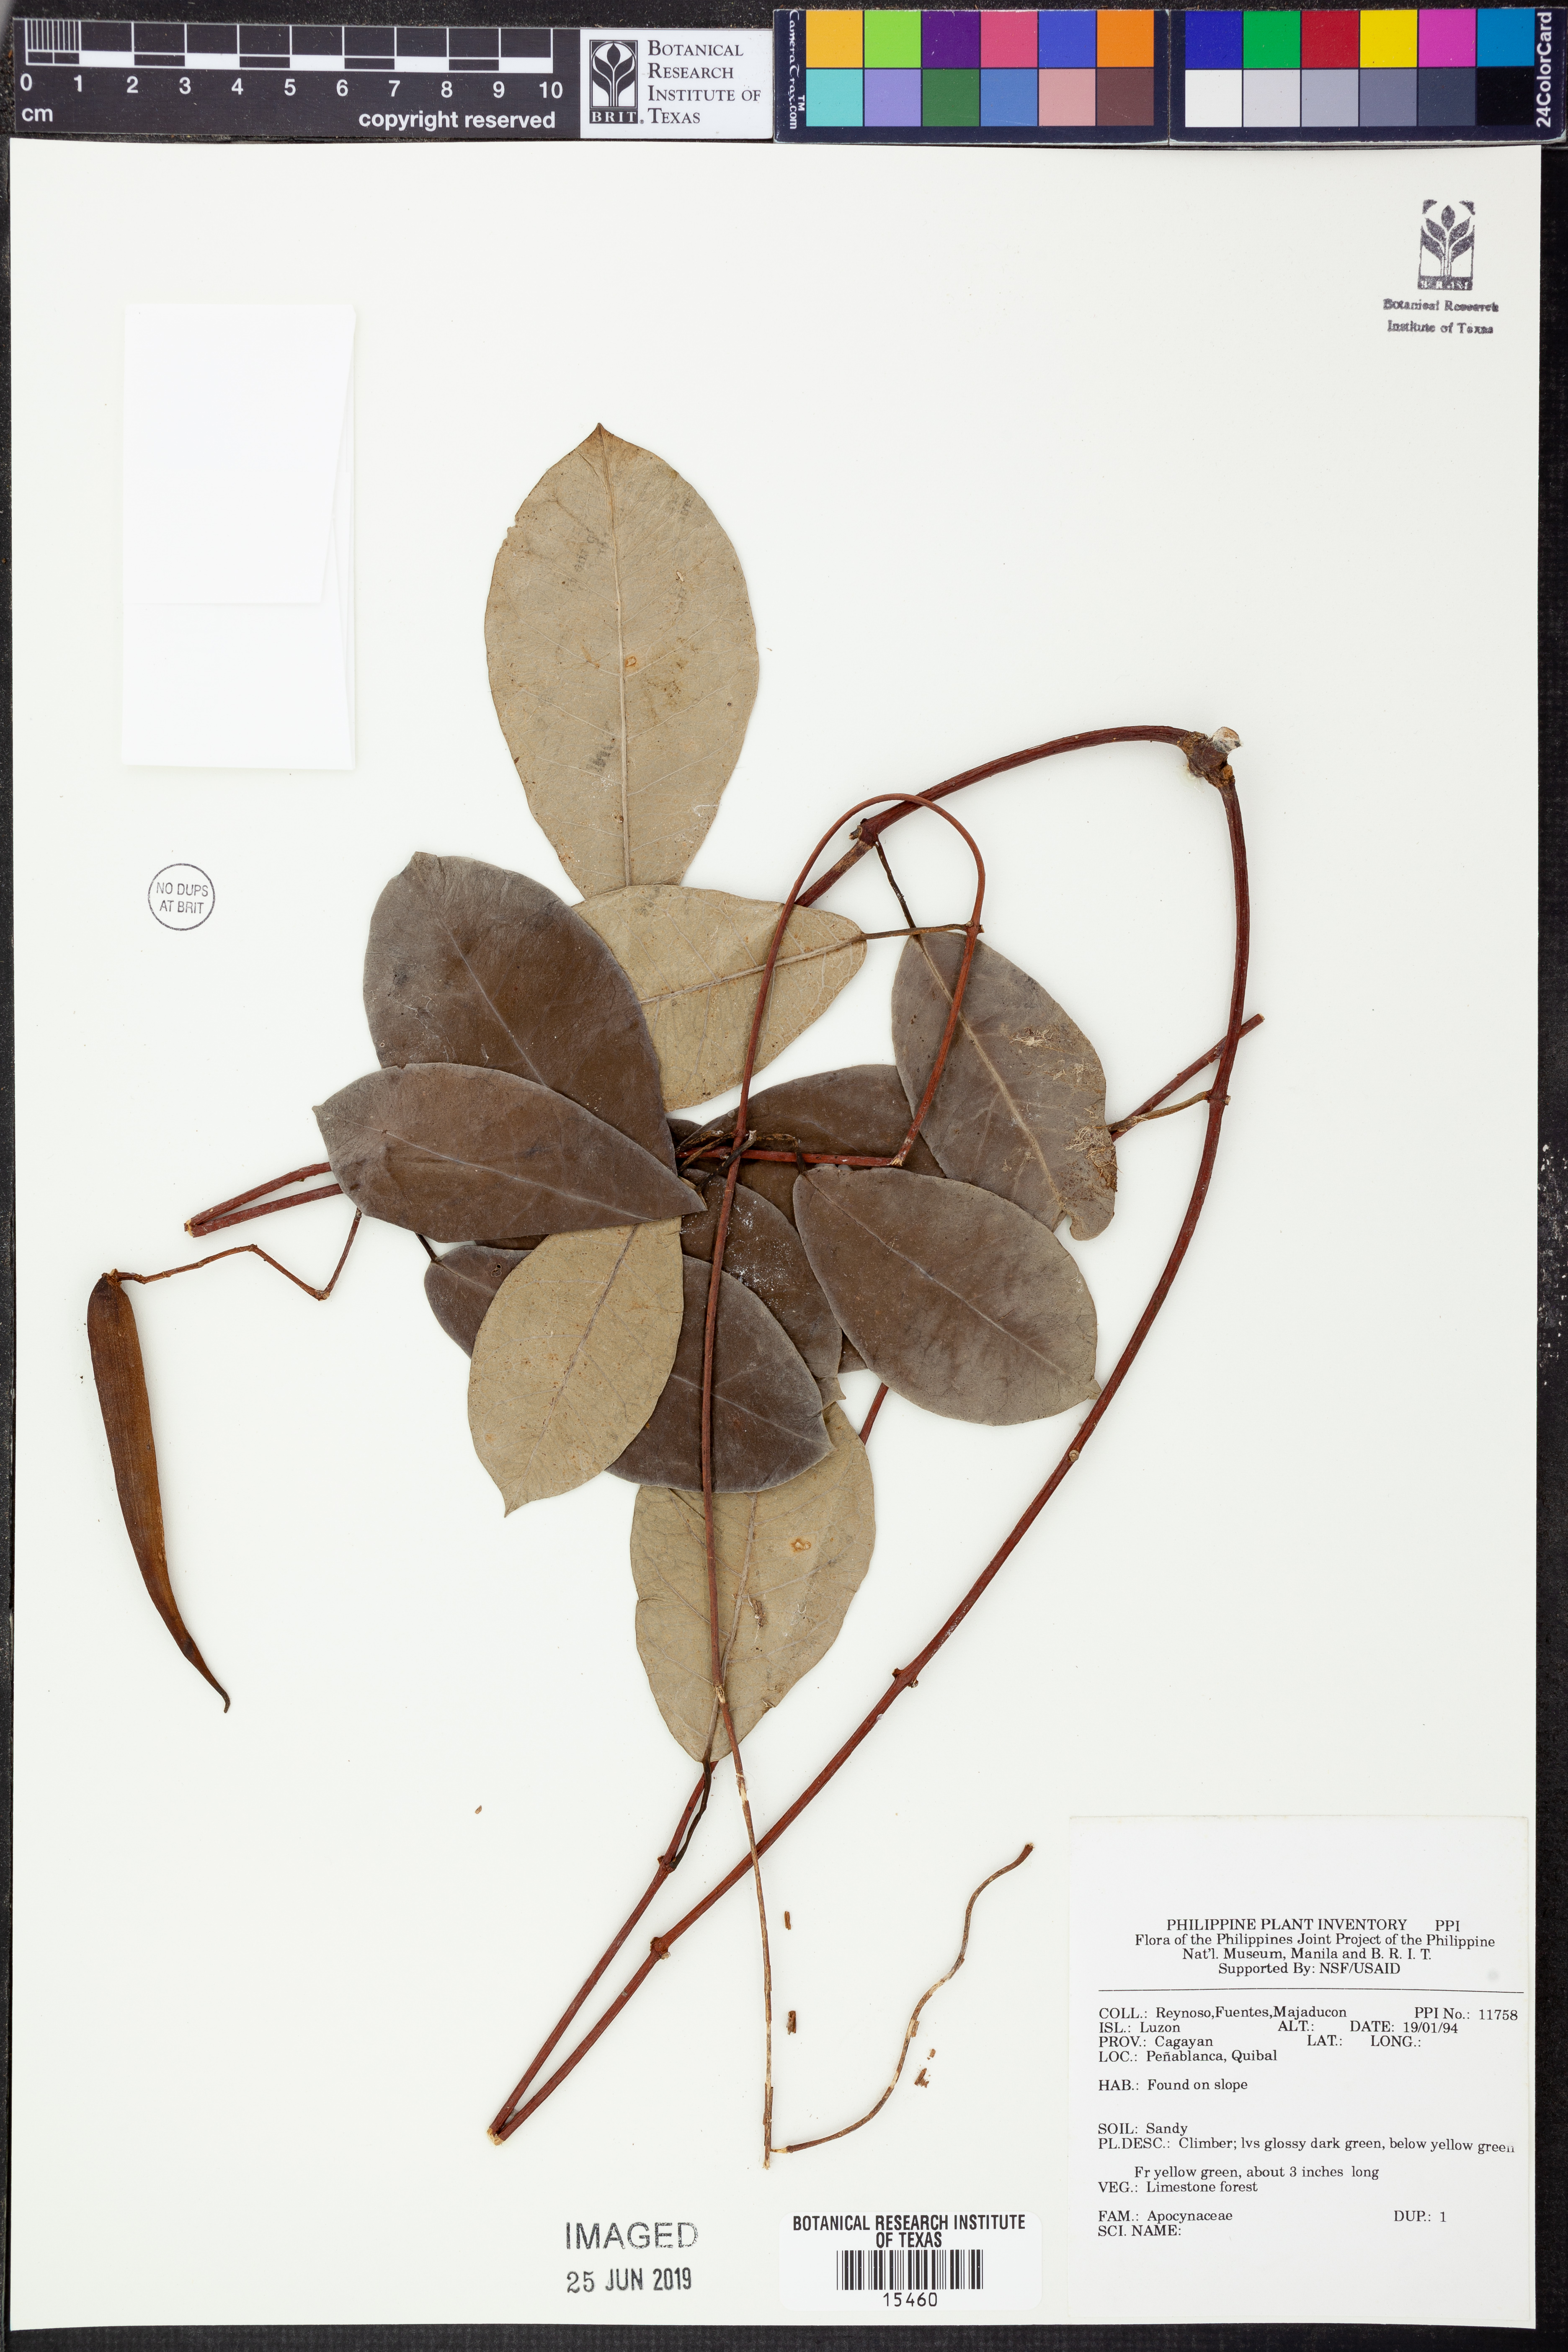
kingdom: Plantae
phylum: Tracheophyta
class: Magnoliopsida
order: Gentianales
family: Apocynaceae
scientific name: Apocynaceae
